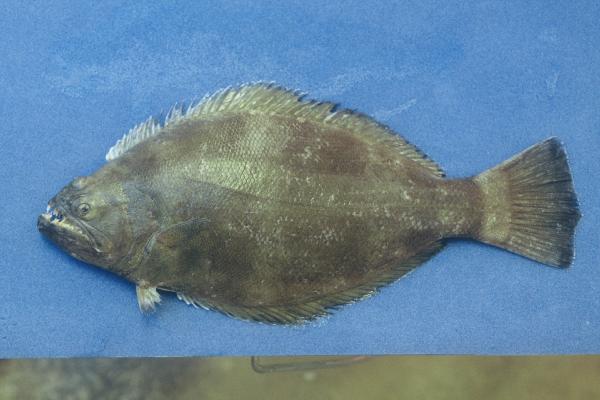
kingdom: Animalia
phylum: Chordata
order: Pleuronectiformes
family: Psettodidae
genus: Psettodes
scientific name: Psettodes erumei
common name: Indian halibut
